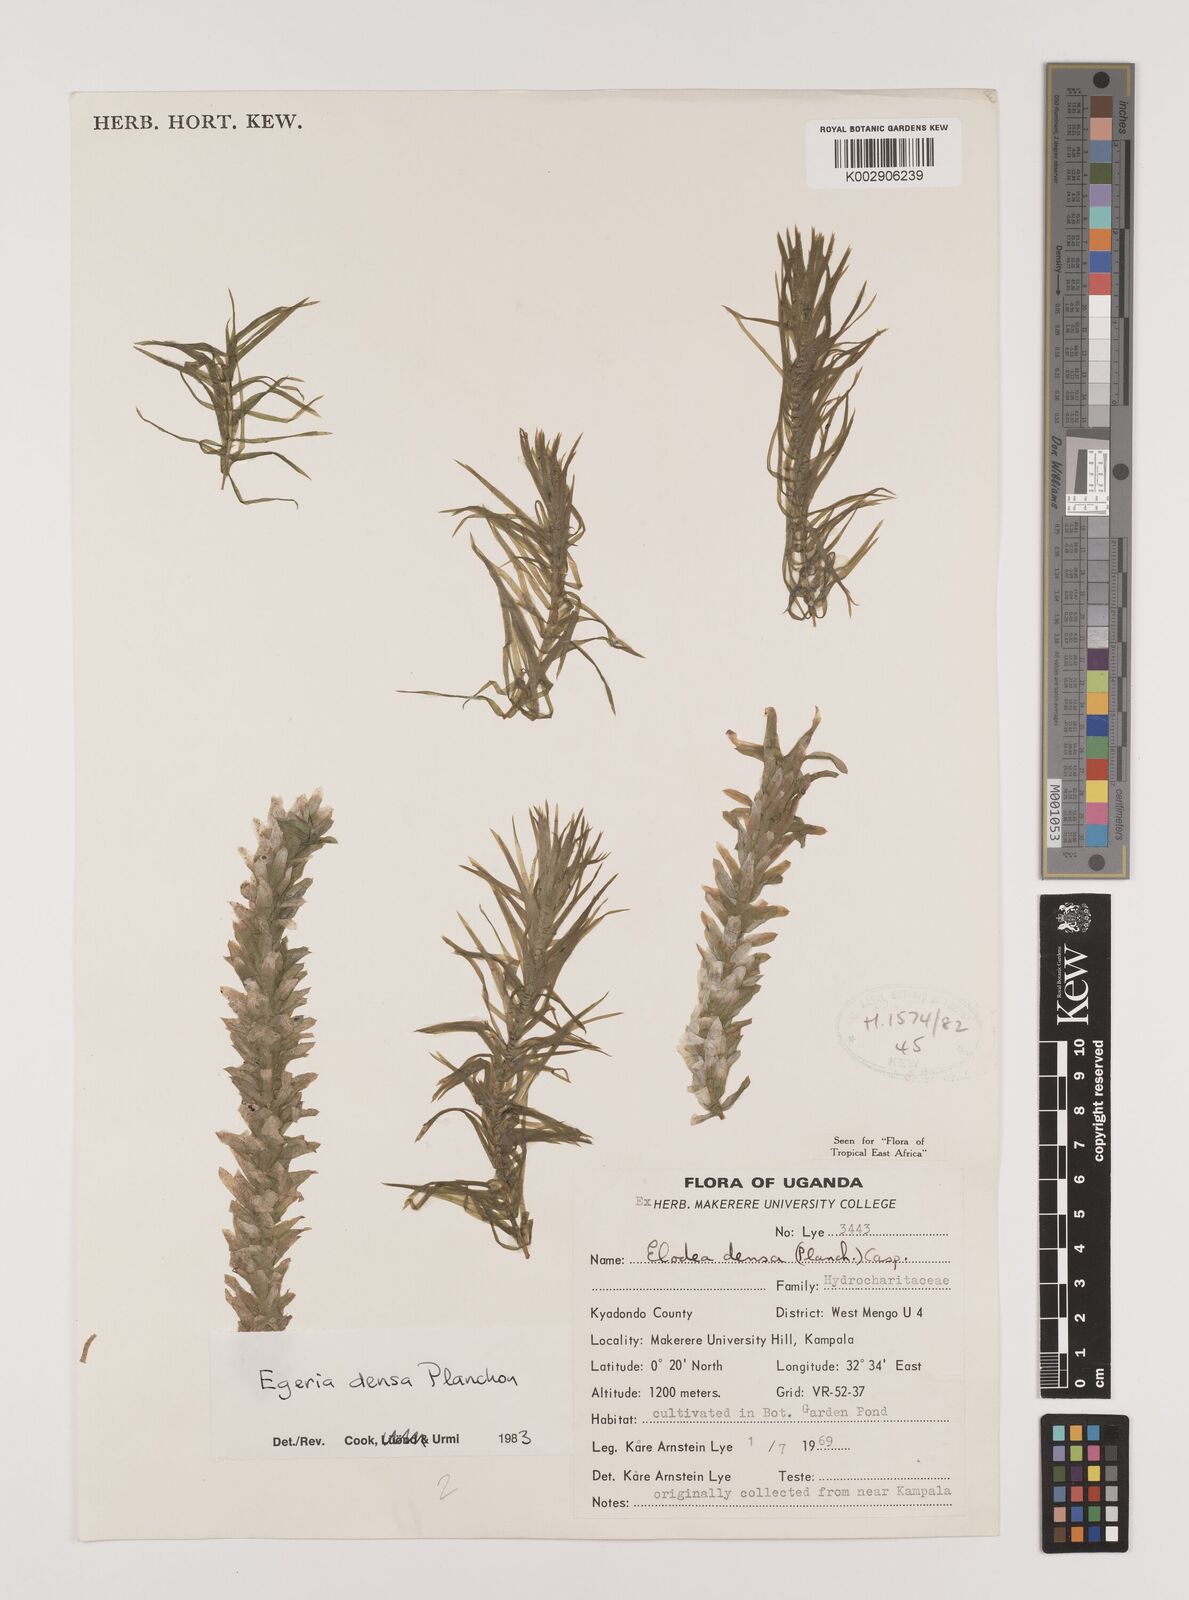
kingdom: Plantae
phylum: Tracheophyta
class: Liliopsida
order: Alismatales
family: Hydrocharitaceae
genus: Elodea
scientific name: Elodea densa
